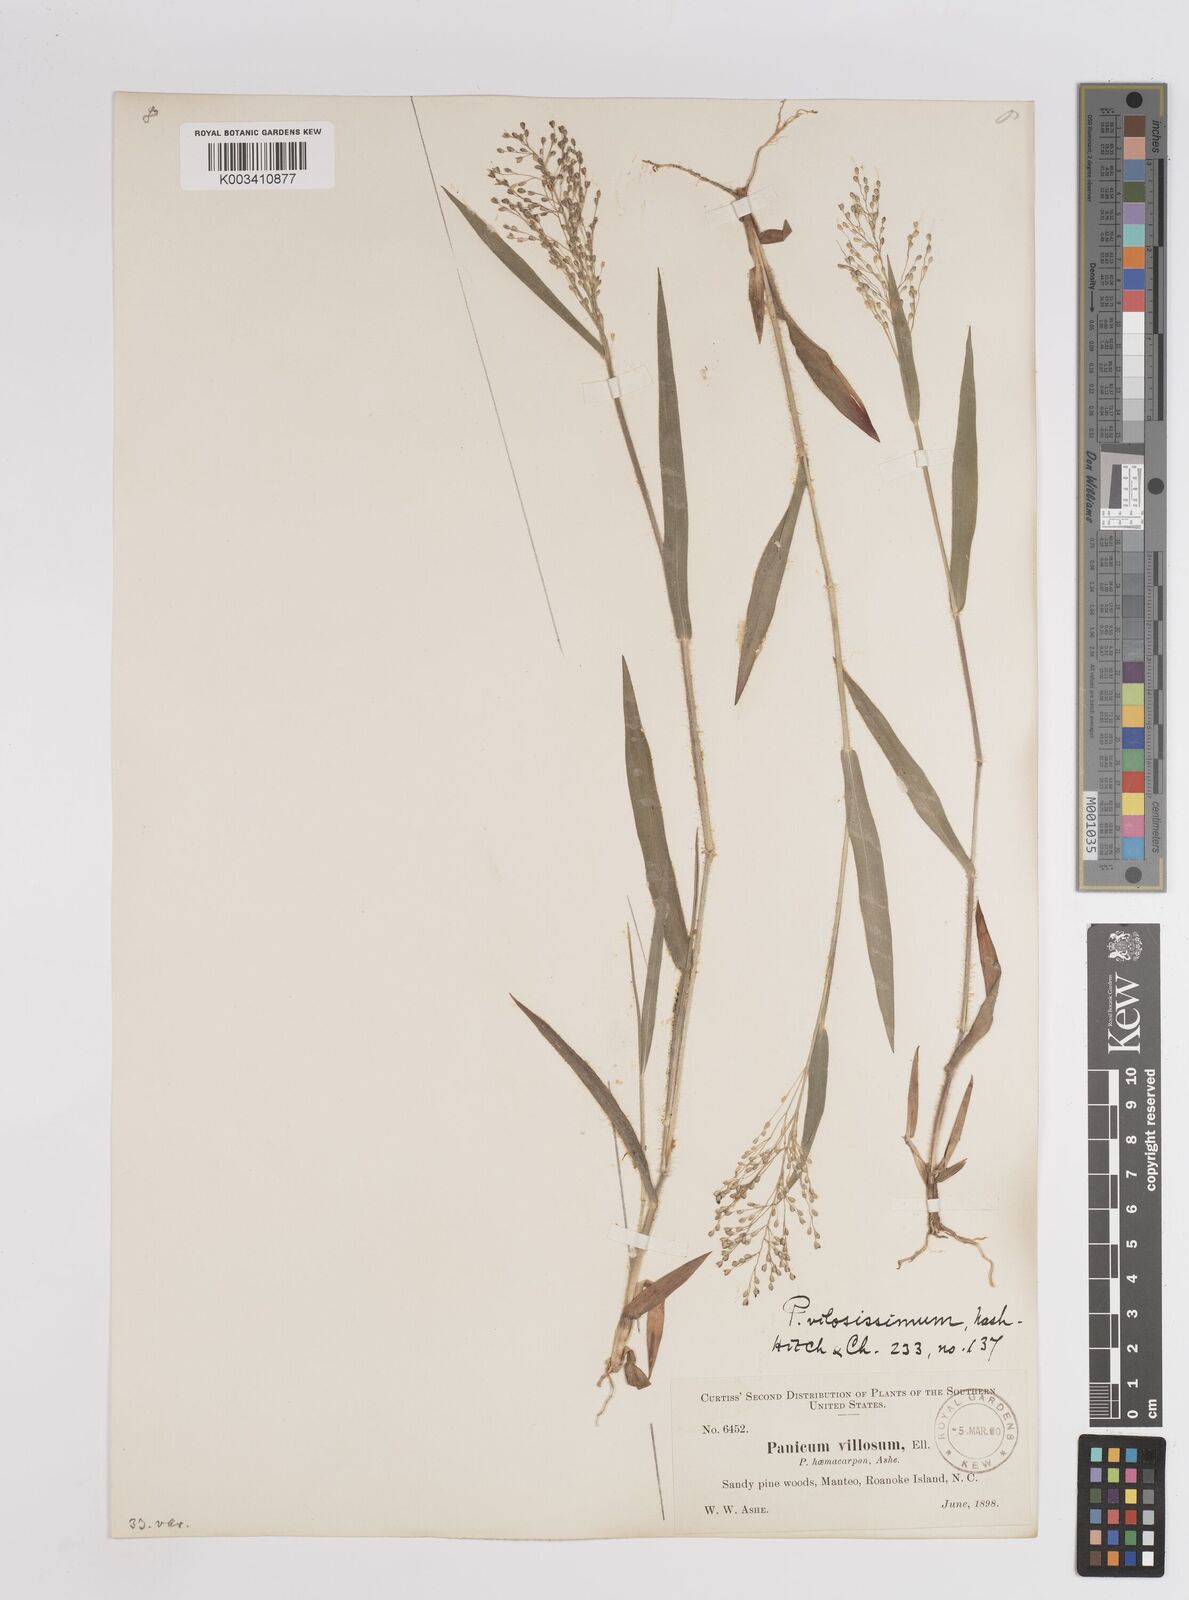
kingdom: Plantae
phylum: Tracheophyta
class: Liliopsida
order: Poales
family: Poaceae
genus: Dichanthelium
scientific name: Dichanthelium villosissimum
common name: White-haired panicgrass
